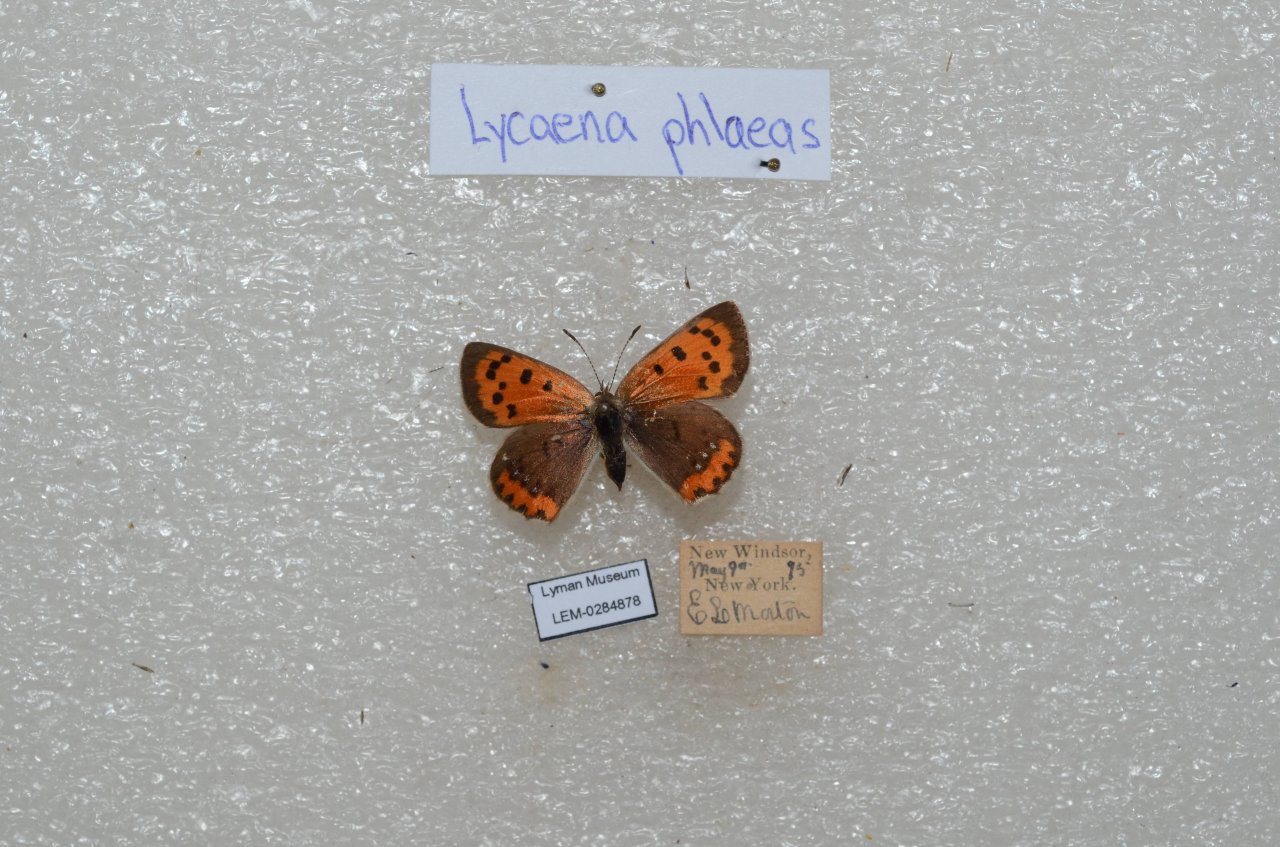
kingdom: Animalia
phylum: Arthropoda
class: Insecta
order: Lepidoptera
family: Lycaenidae
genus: Lycaena
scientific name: Lycaena phlaeas
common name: American Copper
